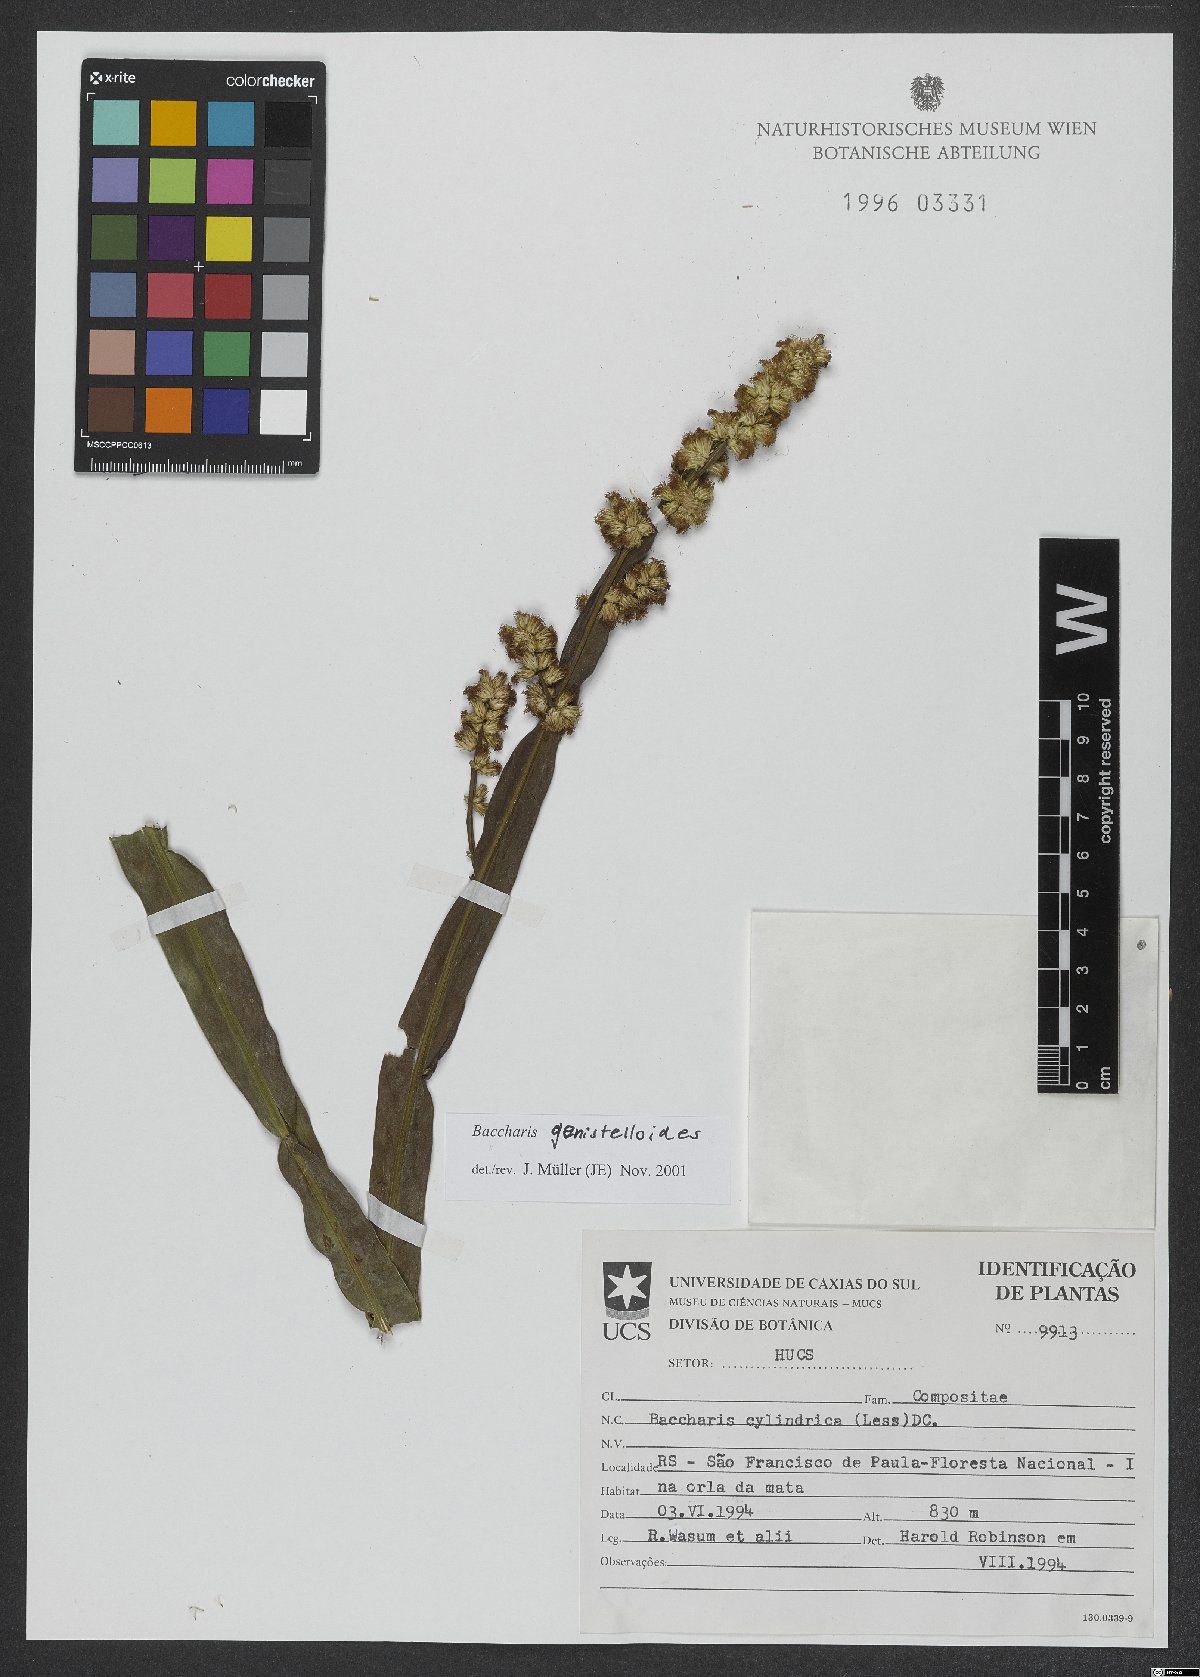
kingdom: Plantae
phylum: Tracheophyta
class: Magnoliopsida
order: Asterales
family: Asteraceae
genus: Baccharis
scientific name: Baccharis genistelloides
